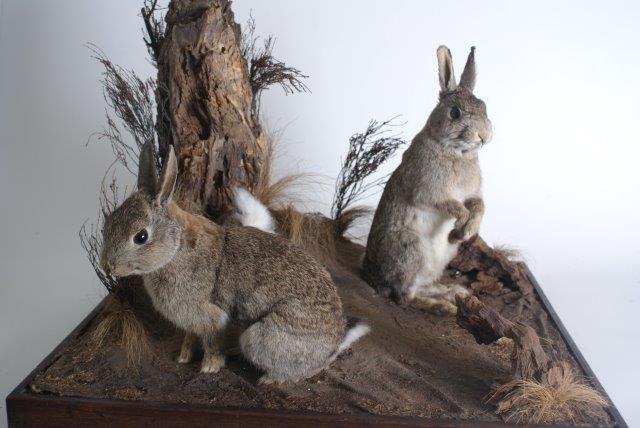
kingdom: Animalia
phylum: Chordata
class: Mammalia
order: Lagomorpha
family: Leporidae
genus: Oryctolagus
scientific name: Oryctolagus cuniculus
